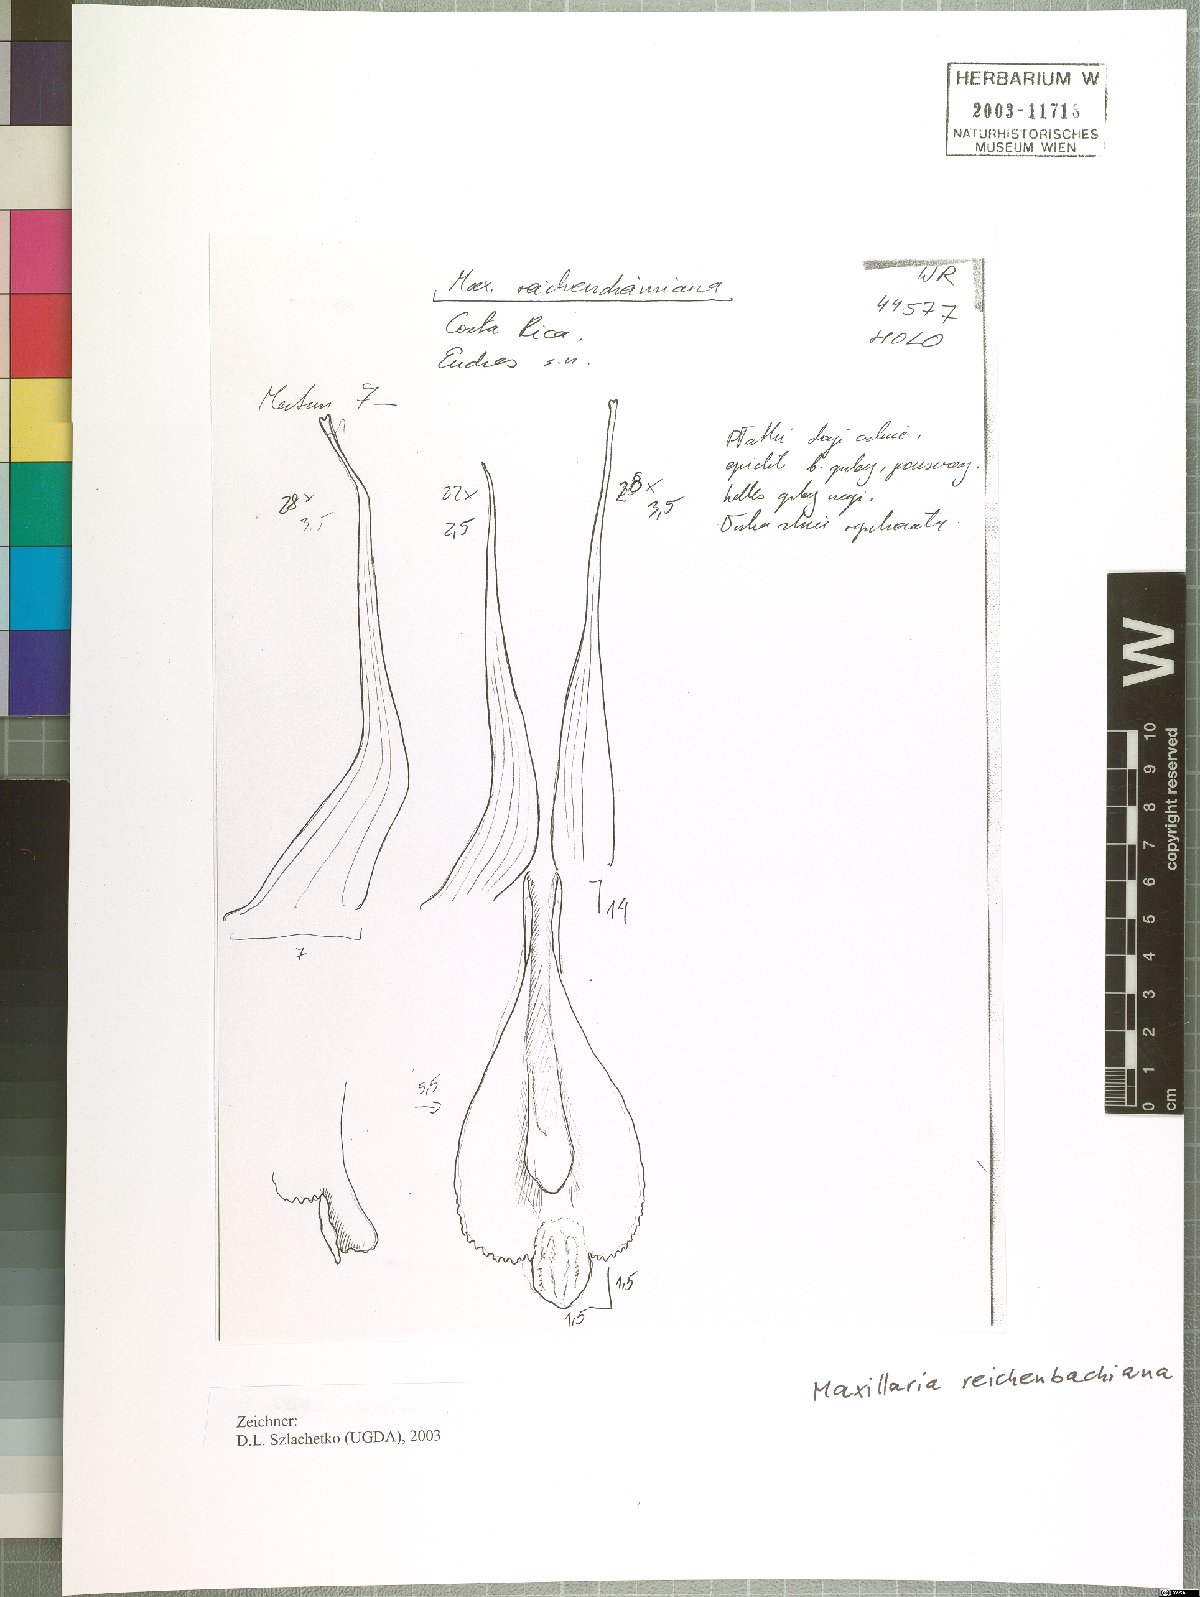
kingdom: Plantae
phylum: Tracheophyta
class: Liliopsida
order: Asparagales
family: Orchidaceae
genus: Maxillaria
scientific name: Maxillaria reichenheimiana
